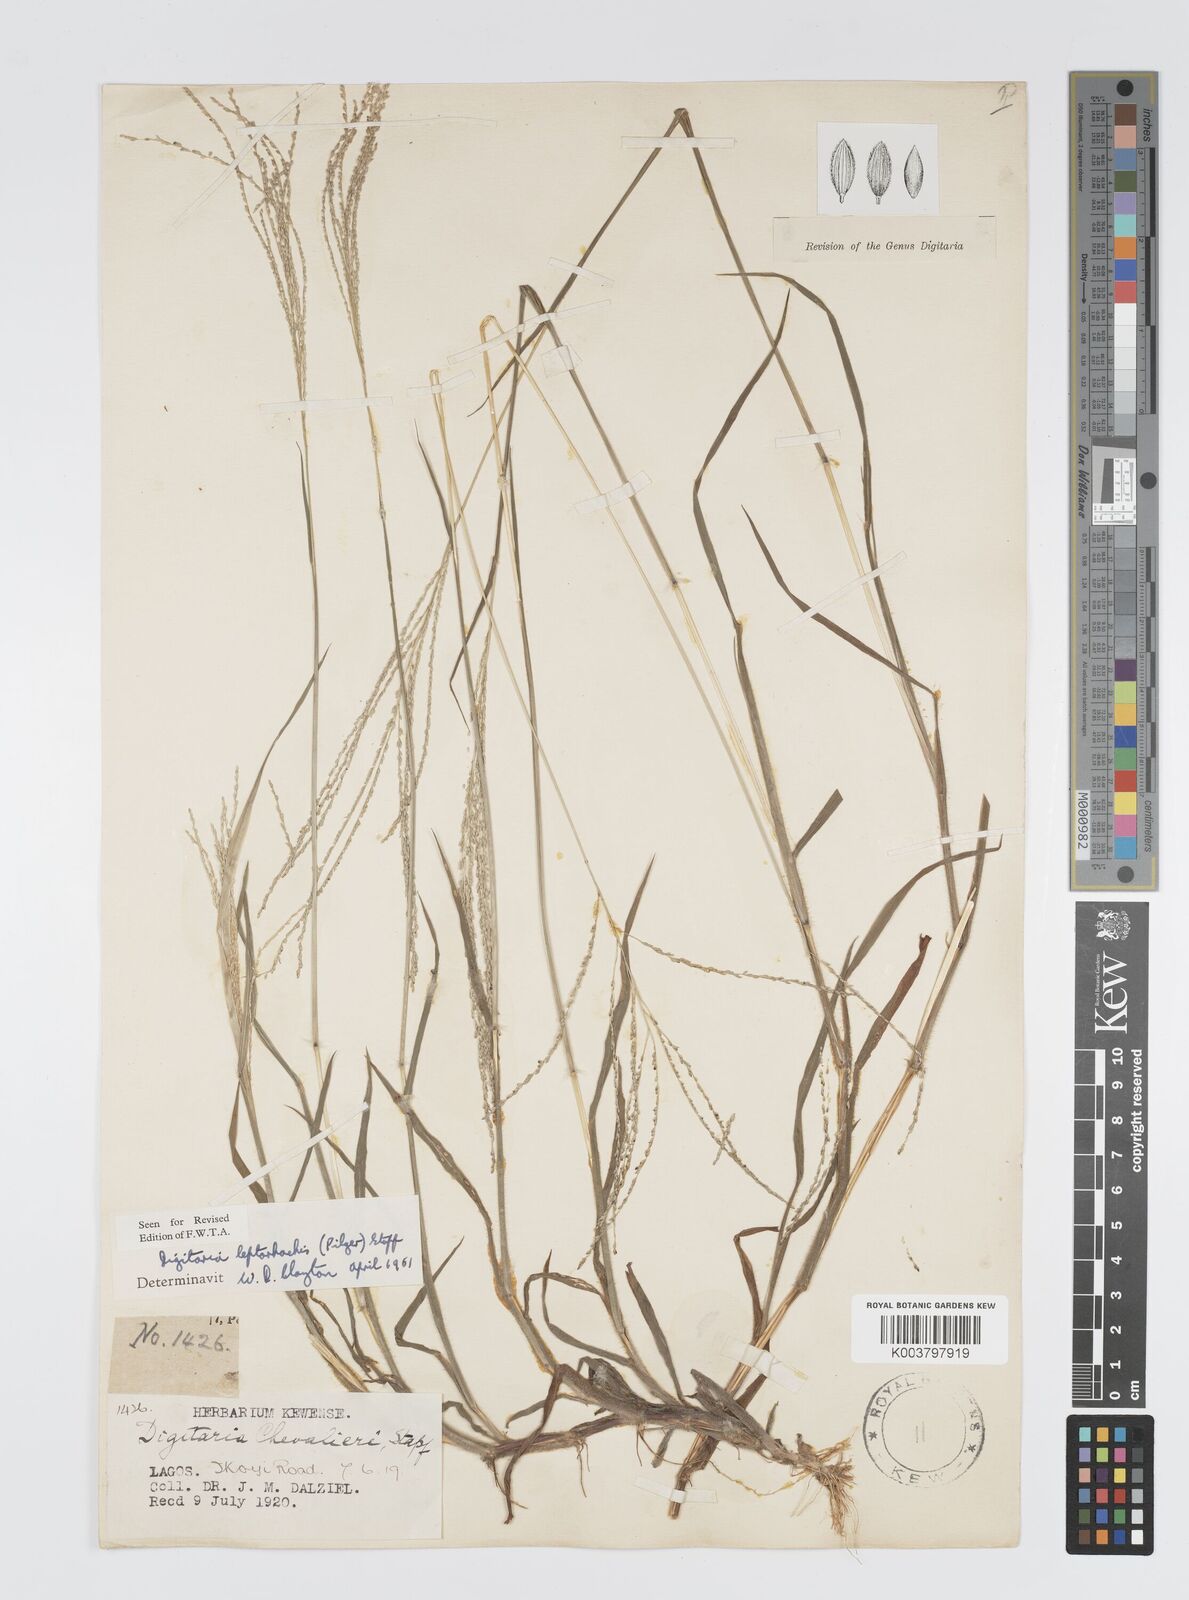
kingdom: Plantae
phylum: Tracheophyta
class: Liliopsida
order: Poales
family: Poaceae
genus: Digitaria
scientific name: Digitaria leptorhachis
